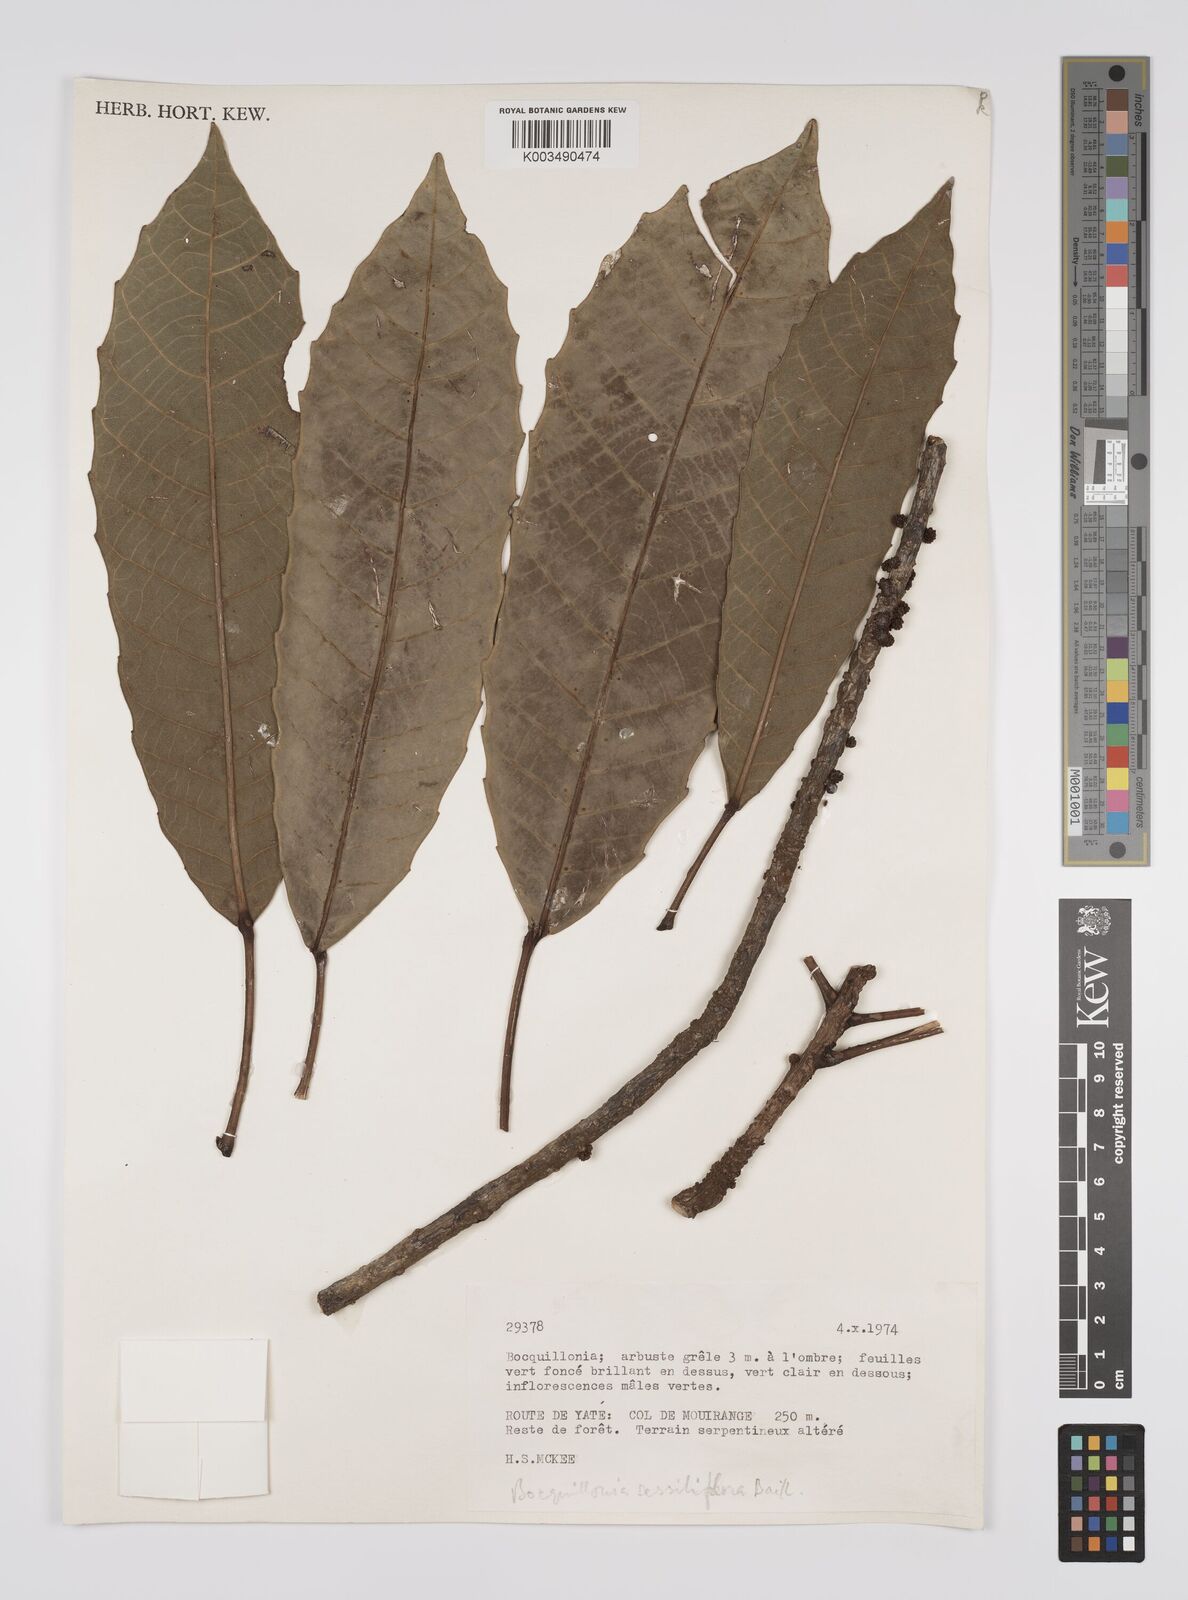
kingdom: Plantae
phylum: Tracheophyta
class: Magnoliopsida
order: Malpighiales
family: Euphorbiaceae
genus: Bocquillonia
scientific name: Bocquillonia sessiliflora
